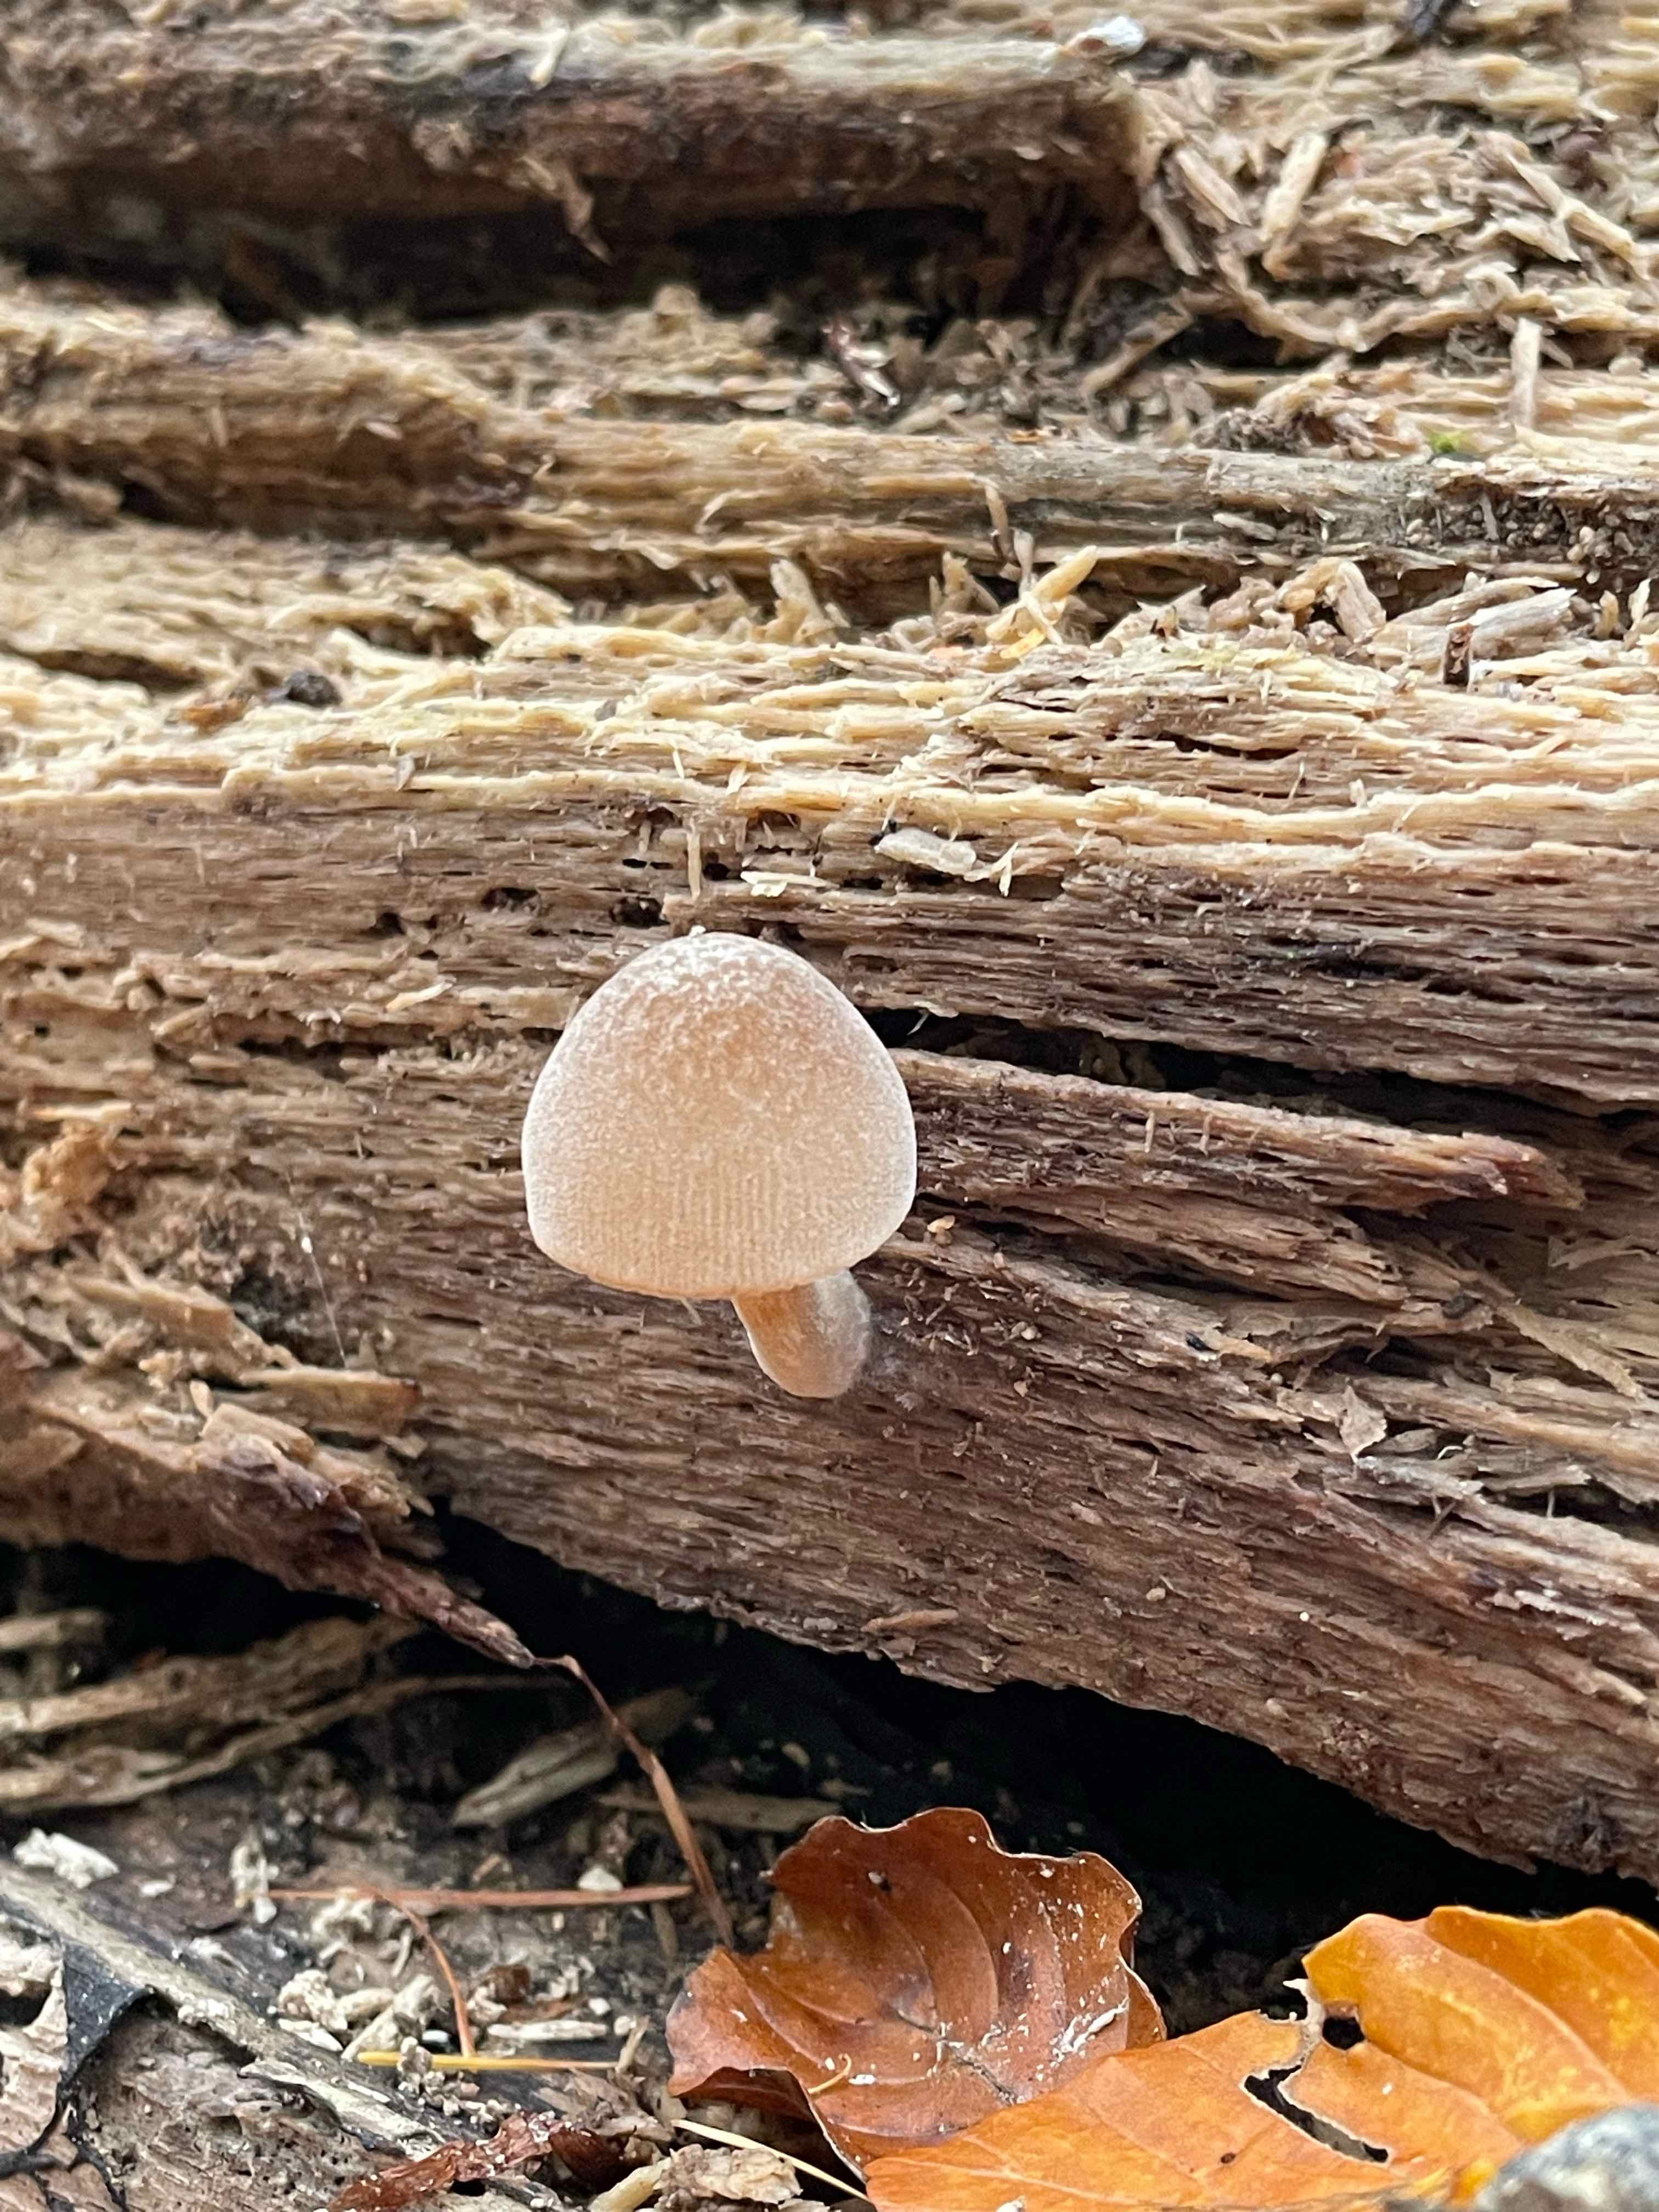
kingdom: Fungi
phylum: Basidiomycota
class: Agaricomycetes
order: Agaricales
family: Pluteaceae
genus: Pluteus
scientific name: Pluteus
